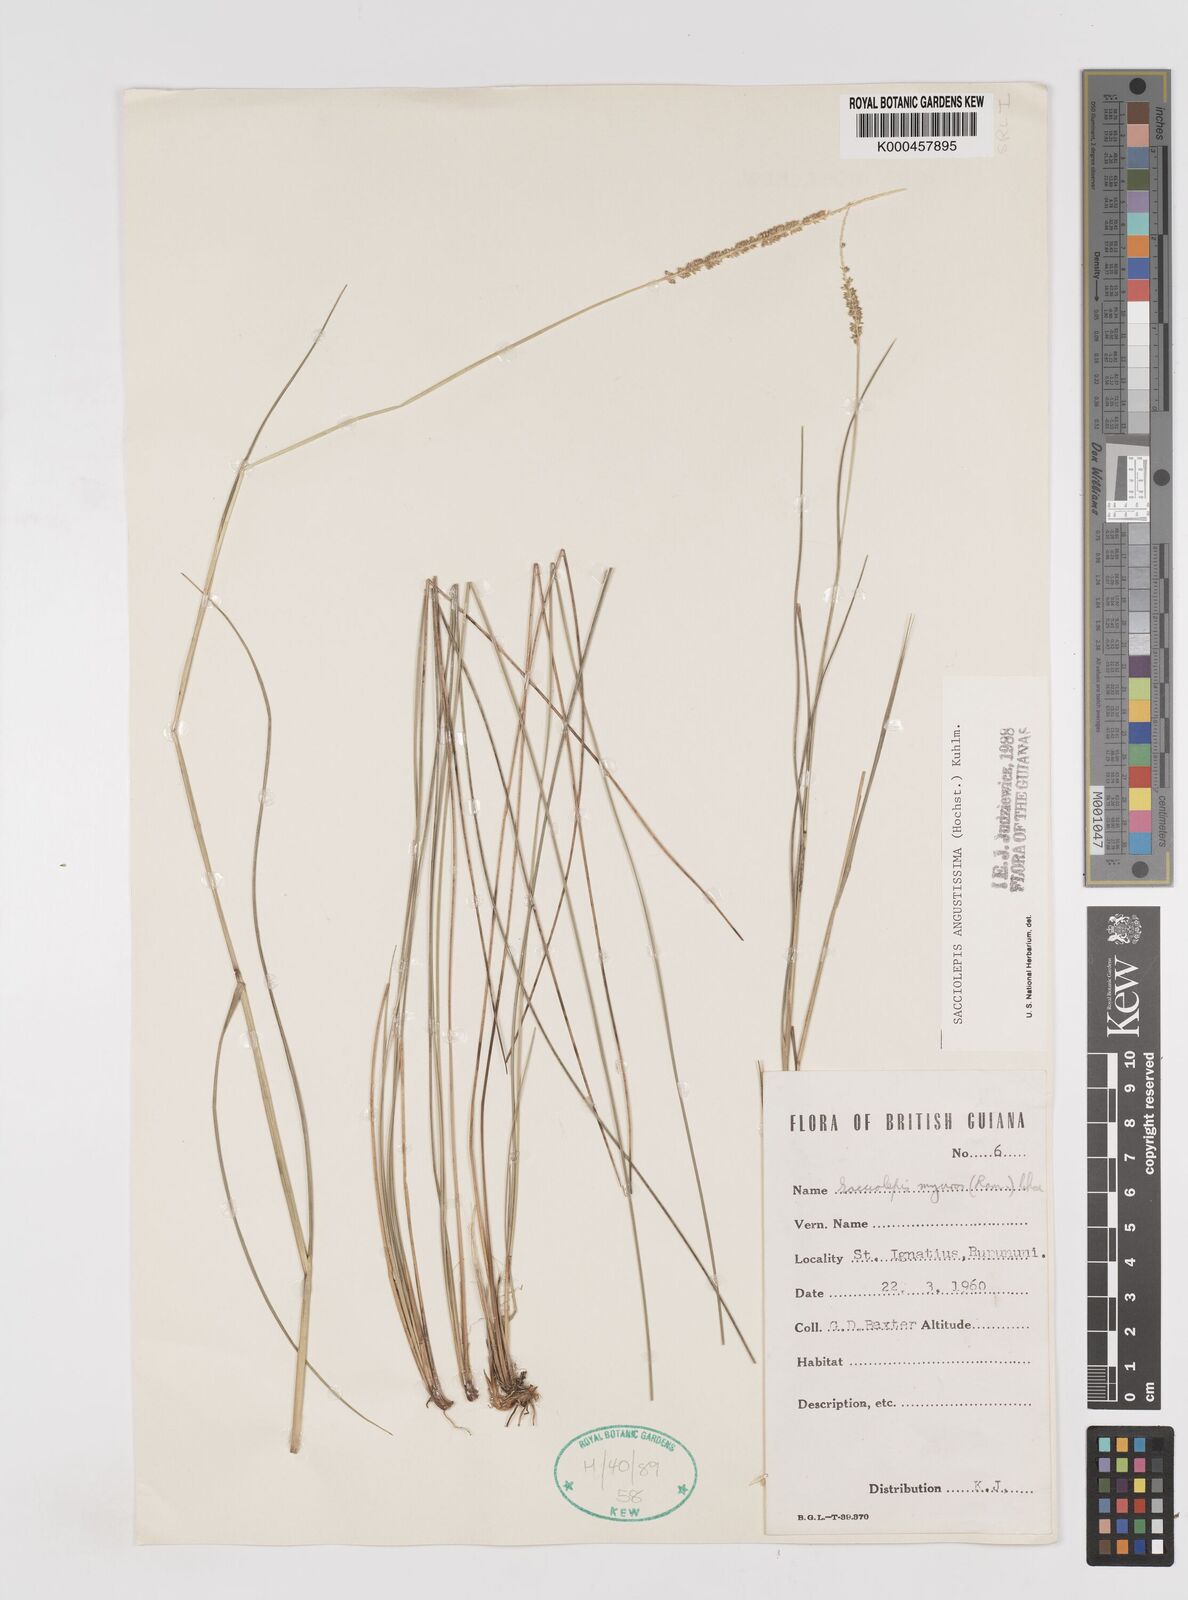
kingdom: Plantae
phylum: Tracheophyta
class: Liliopsida
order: Poales
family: Poaceae
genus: Sacciolepis
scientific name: Sacciolepis angustissima
